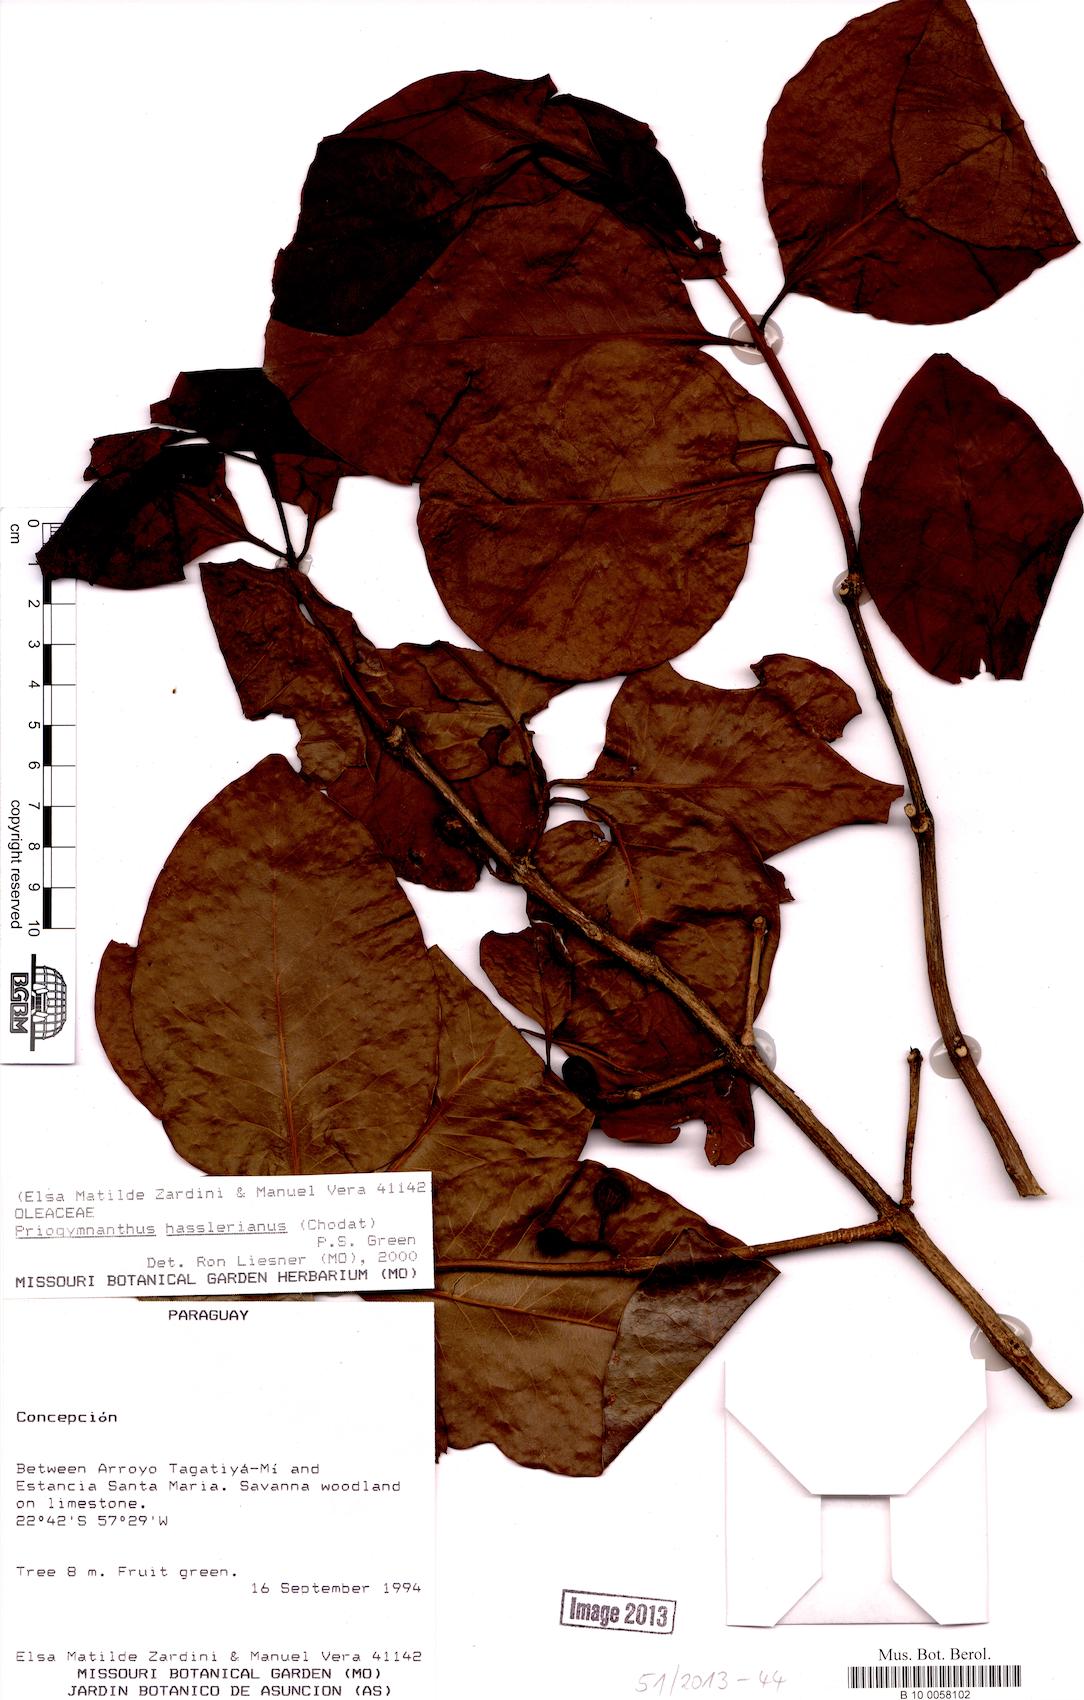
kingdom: Plantae
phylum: Tracheophyta
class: Magnoliopsida
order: Lamiales
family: Oleaceae
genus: Priogymnanthus
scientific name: Priogymnanthus hasslerianus
